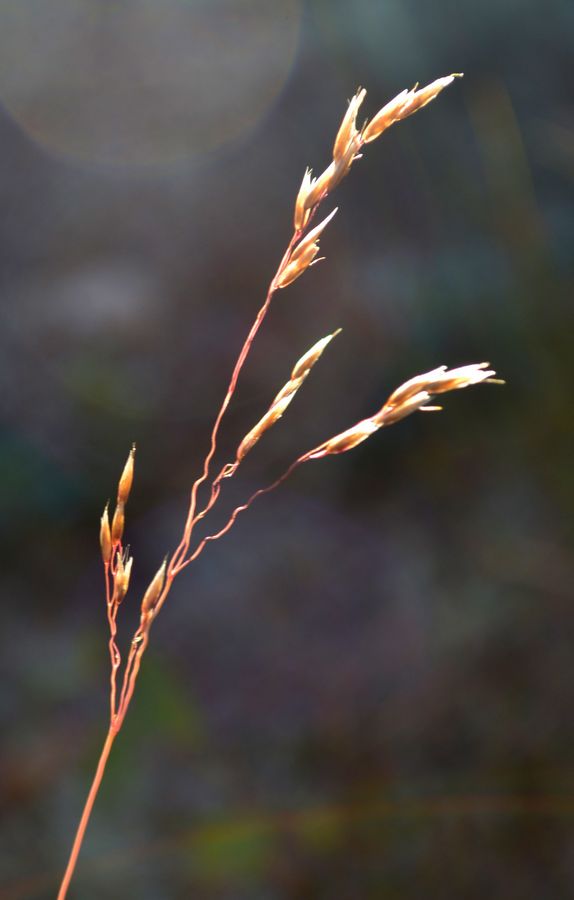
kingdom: Plantae
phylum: Tracheophyta
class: Liliopsida
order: Poales
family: Poaceae
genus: Avenella
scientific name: Avenella flexuosa
